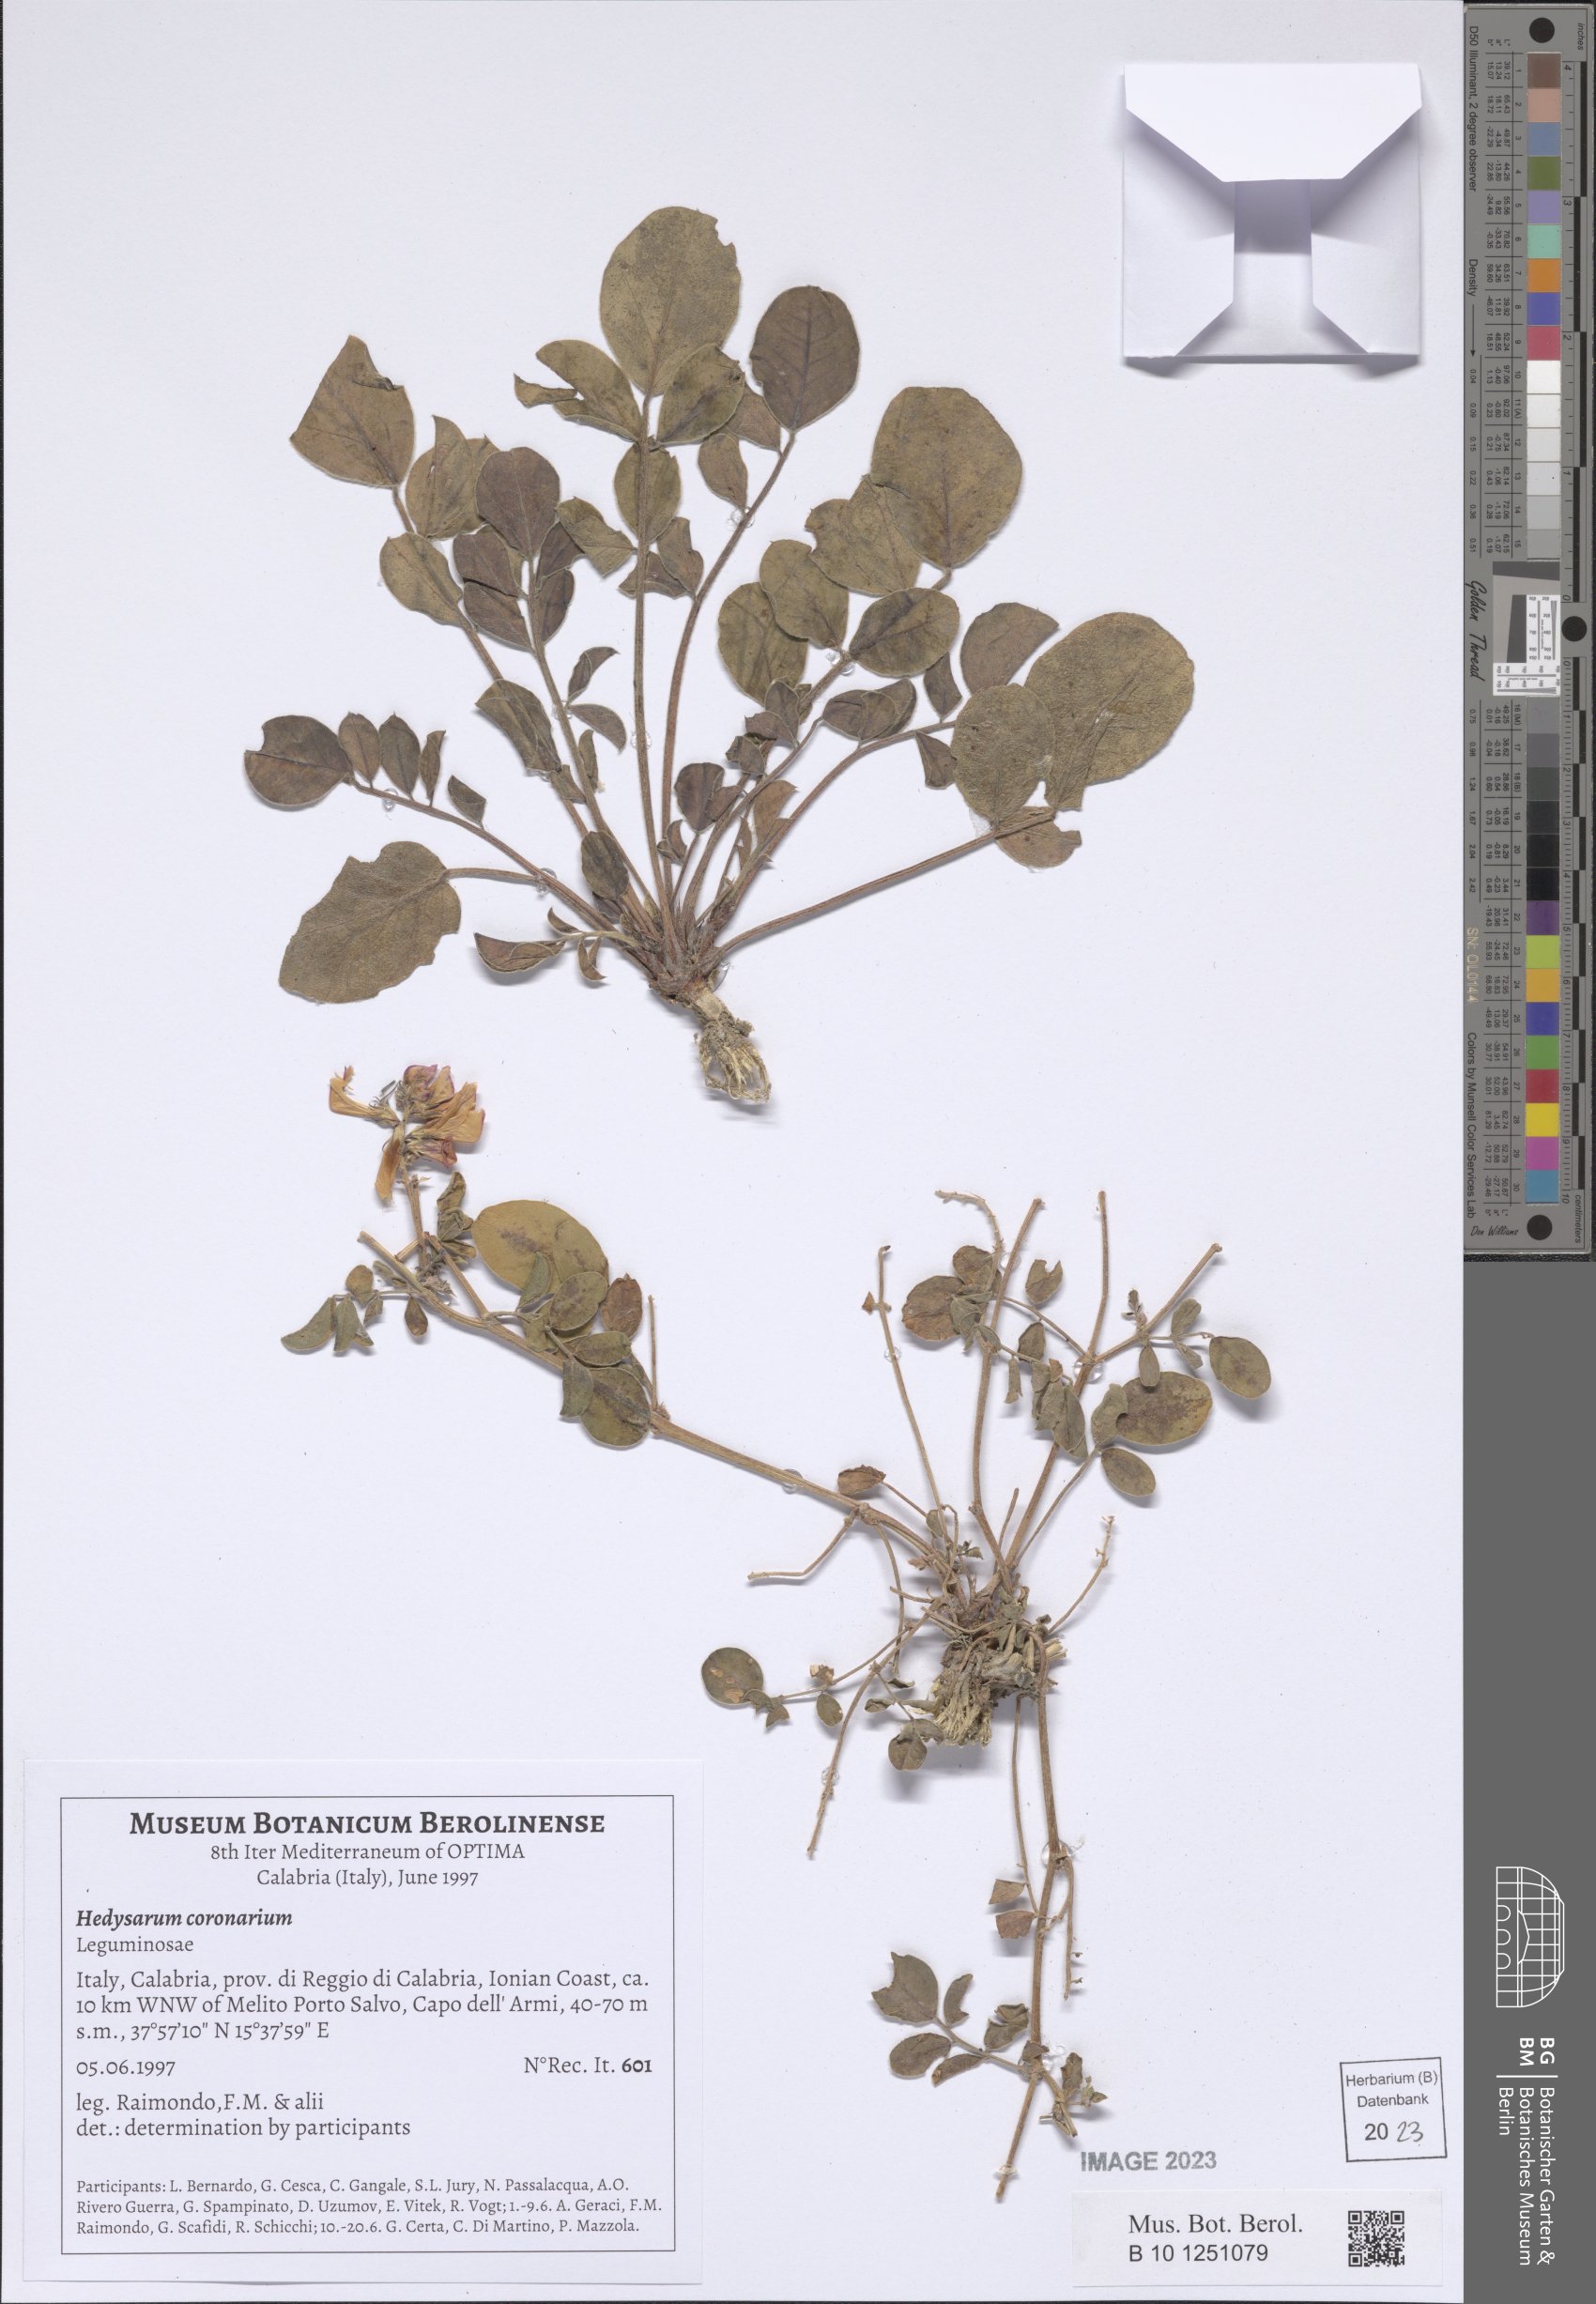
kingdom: Plantae
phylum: Tracheophyta
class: Magnoliopsida
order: Fabales
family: Fabaceae
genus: Sulla
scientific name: Sulla coronaria
